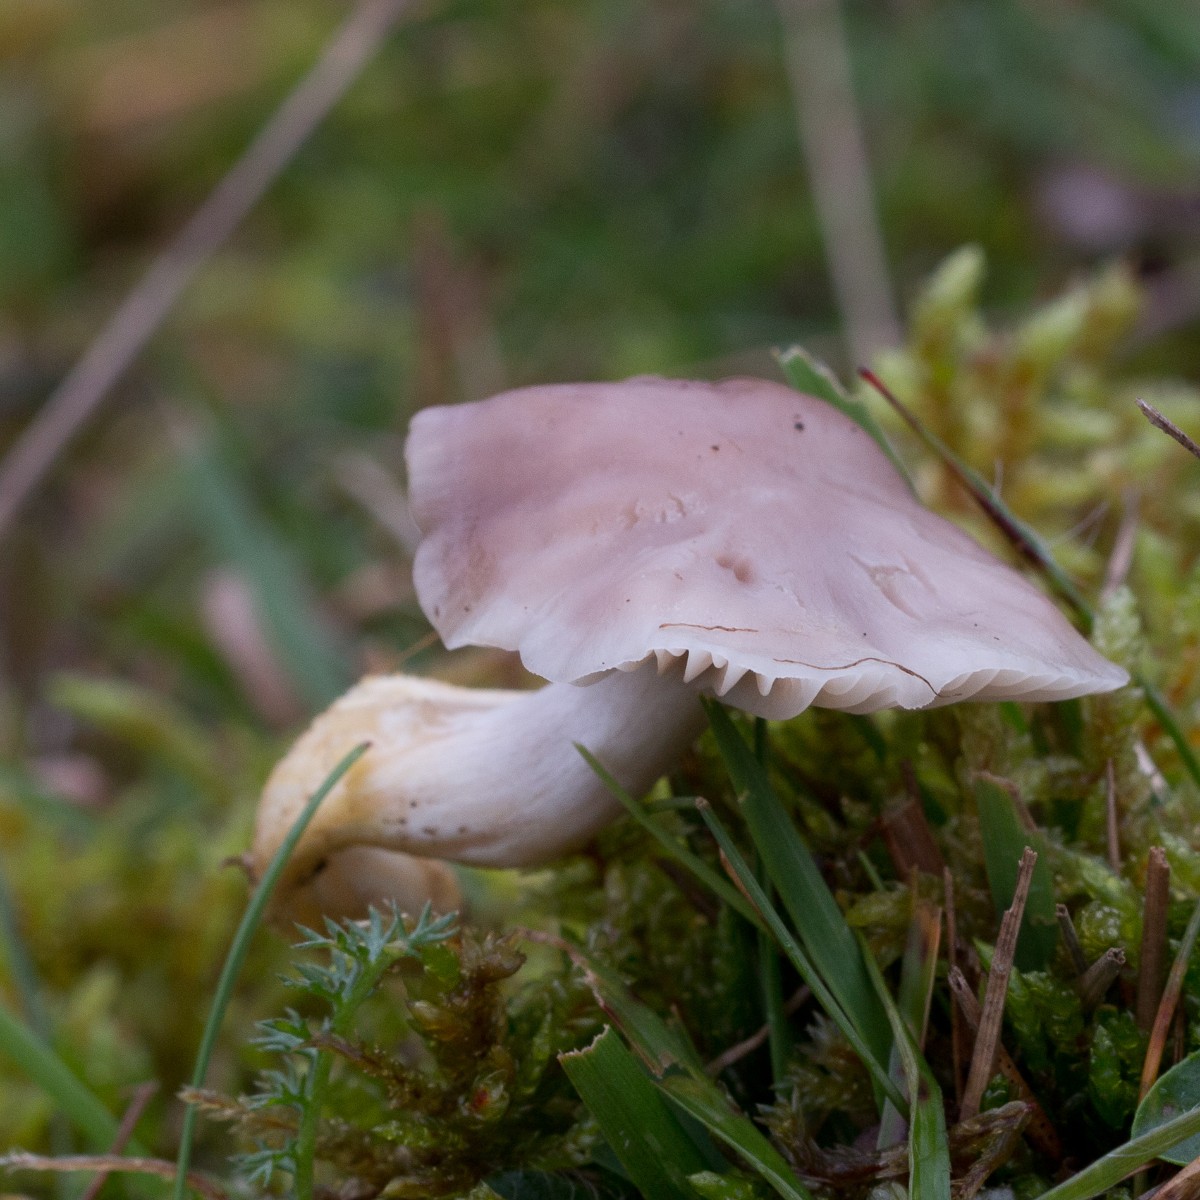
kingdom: Fungi
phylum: Basidiomycota
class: Agaricomycetes
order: Agaricales
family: Hygrophoraceae
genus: Cuphophyllus
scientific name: Cuphophyllus flavipes
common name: gulfodet vokshat
